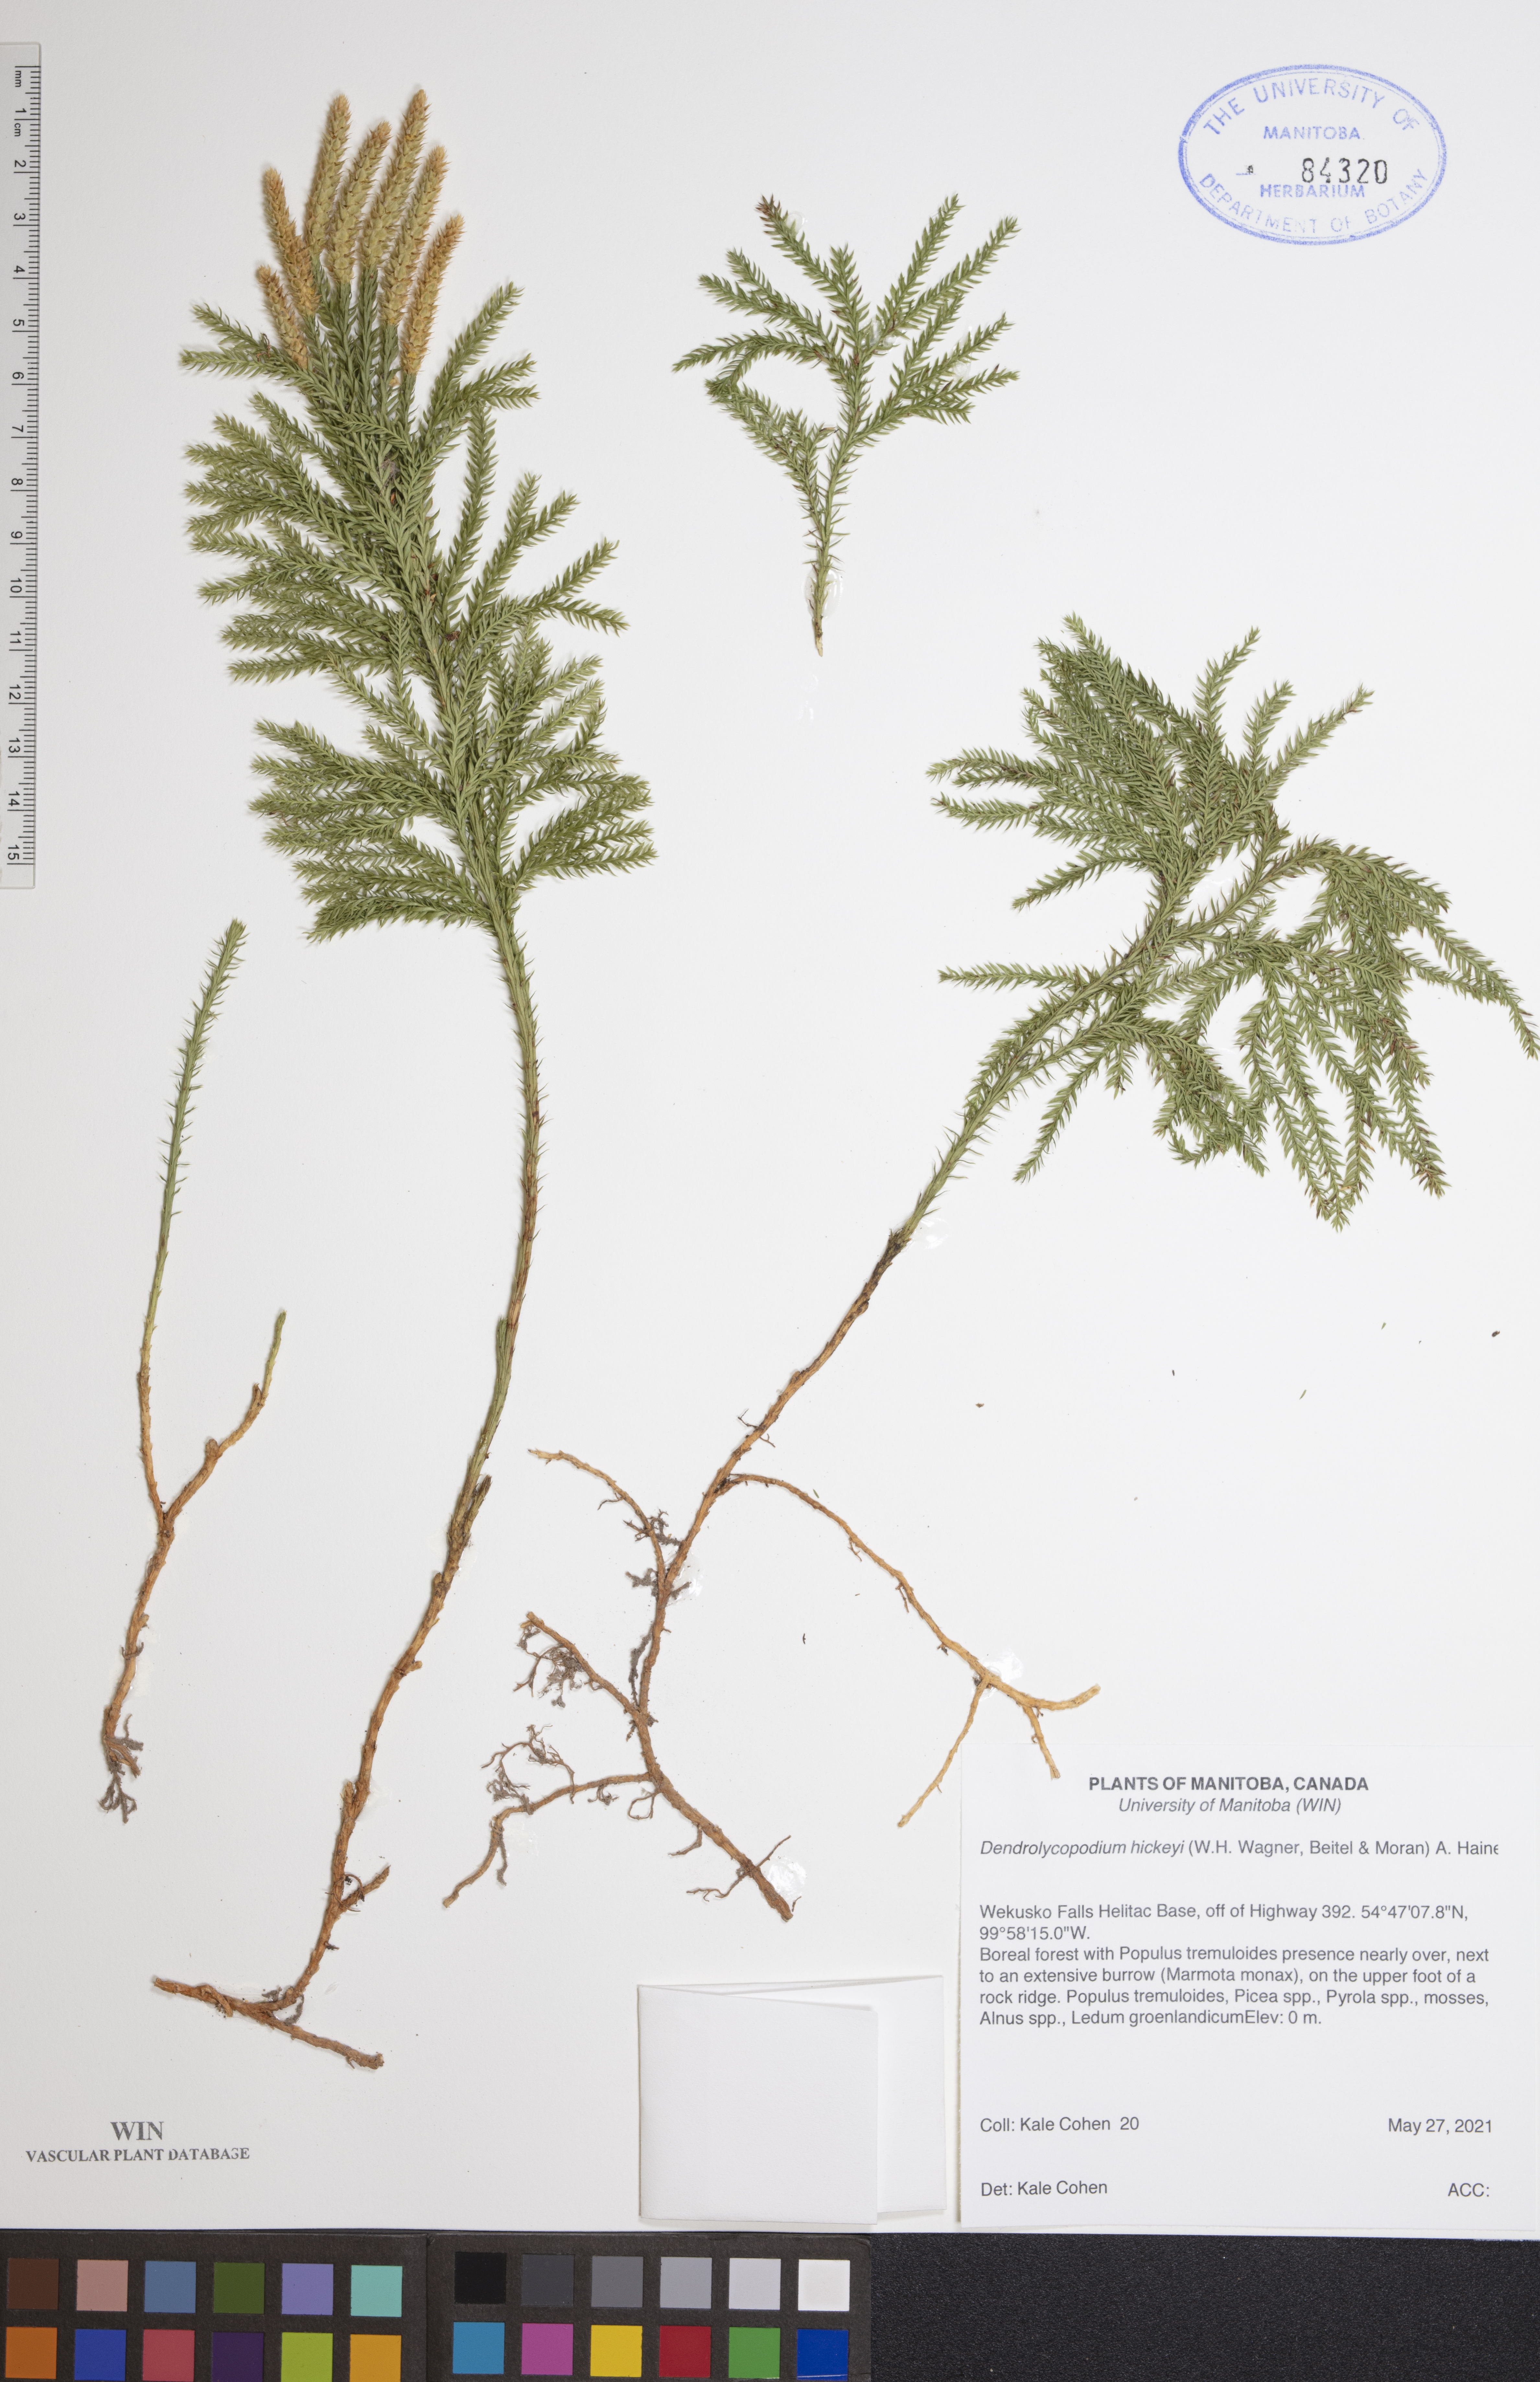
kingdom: Plantae
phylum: Tracheophyta
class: Lycopodiopsida
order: Lycopodiales
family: Lycopodiaceae
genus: Dendrolycopodium
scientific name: Dendrolycopodium hickeyi
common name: Hickey's clubmoss
